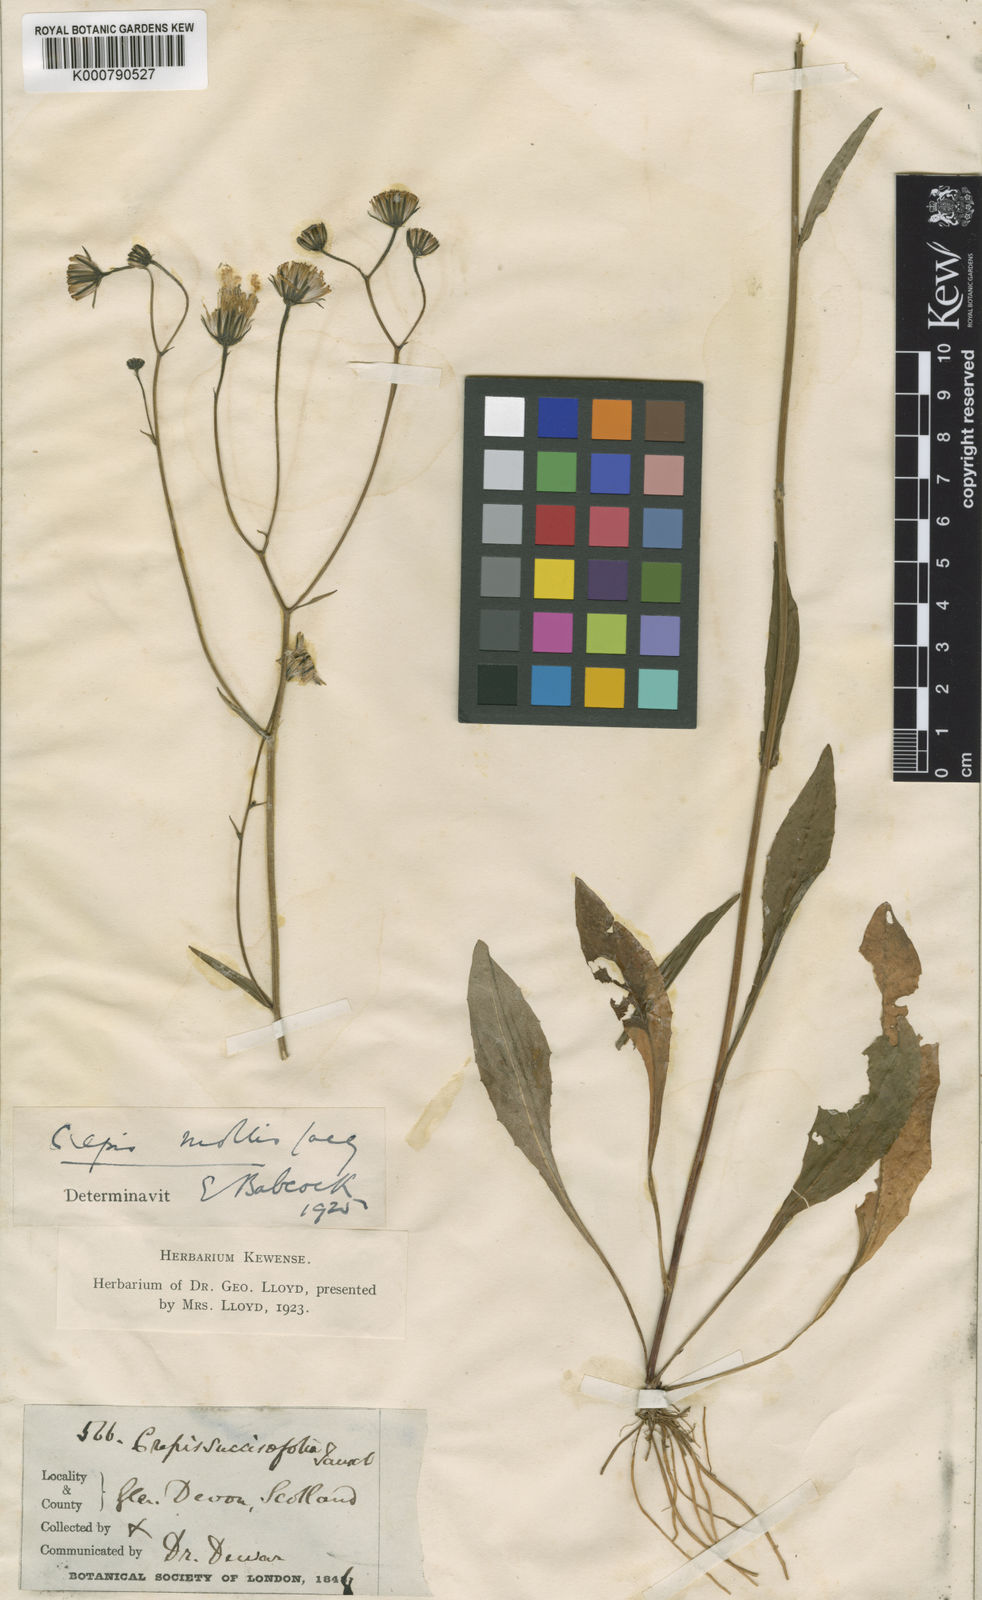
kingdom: Plantae
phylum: Tracheophyta
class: Magnoliopsida
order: Asterales
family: Asteraceae
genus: Crepis
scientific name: Crepis mollis
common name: Northern hawk's-beard
